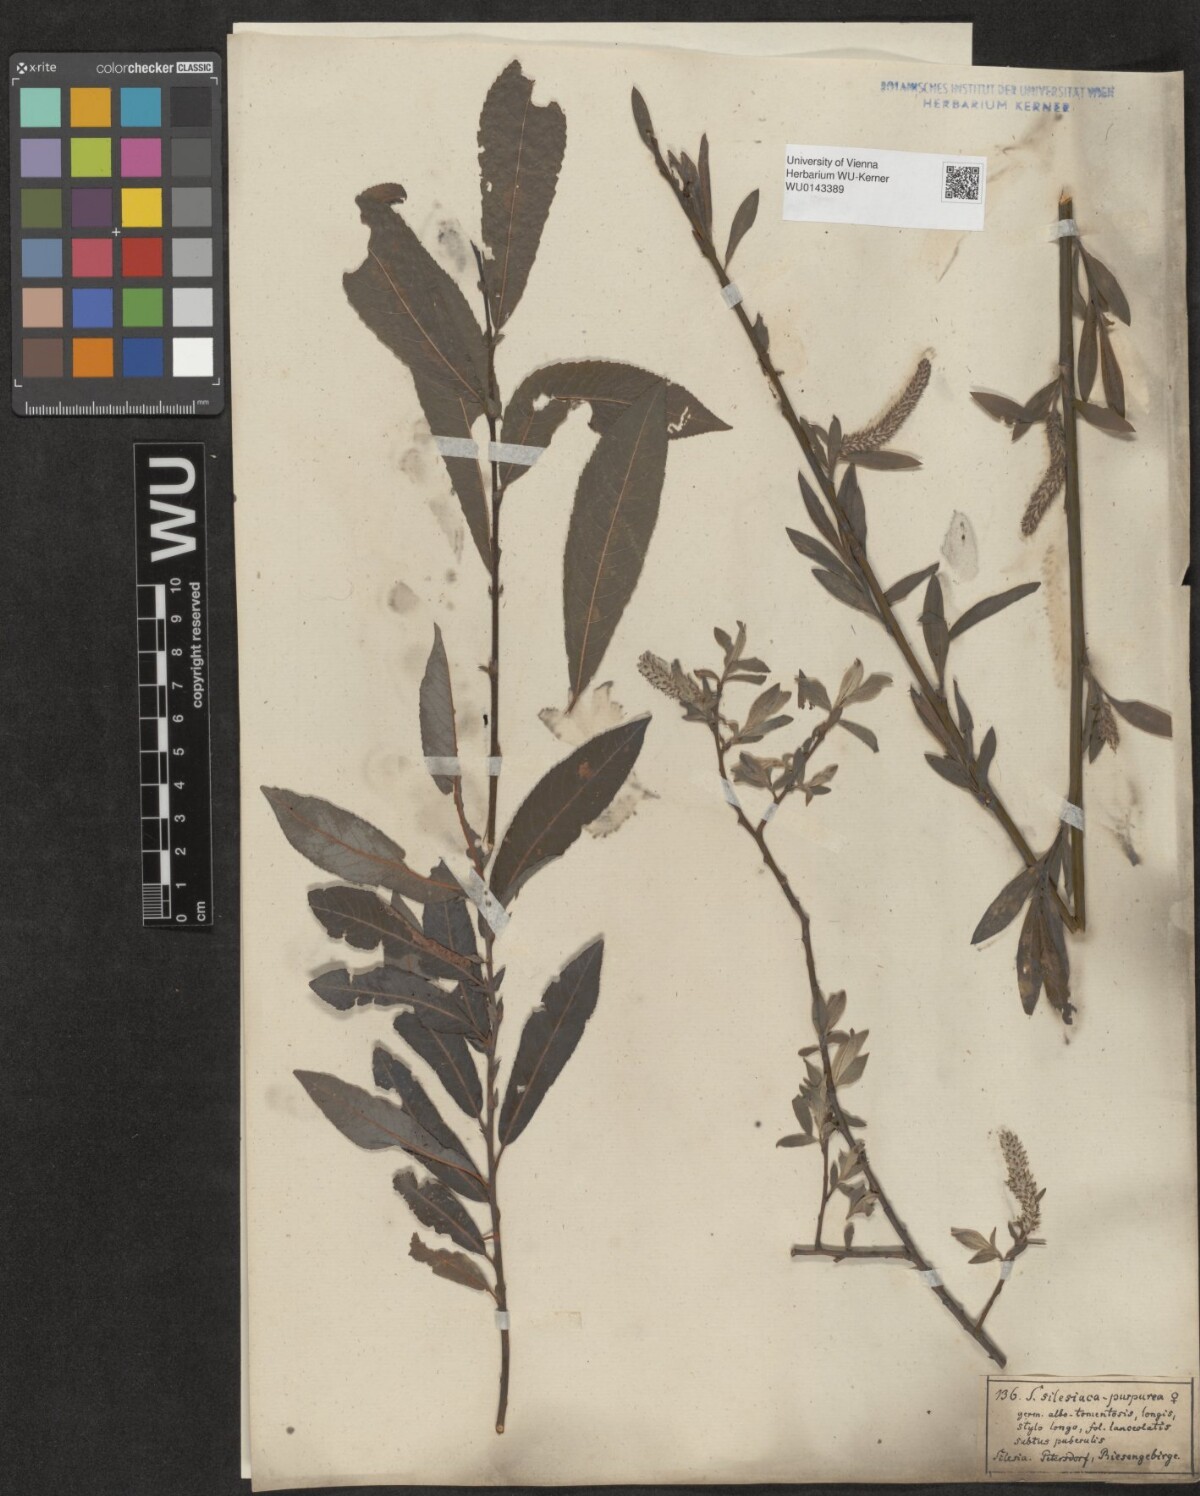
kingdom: Plantae
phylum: Tracheophyta
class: Magnoliopsida
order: Malpighiales
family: Salicaceae
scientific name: Salicaceae
